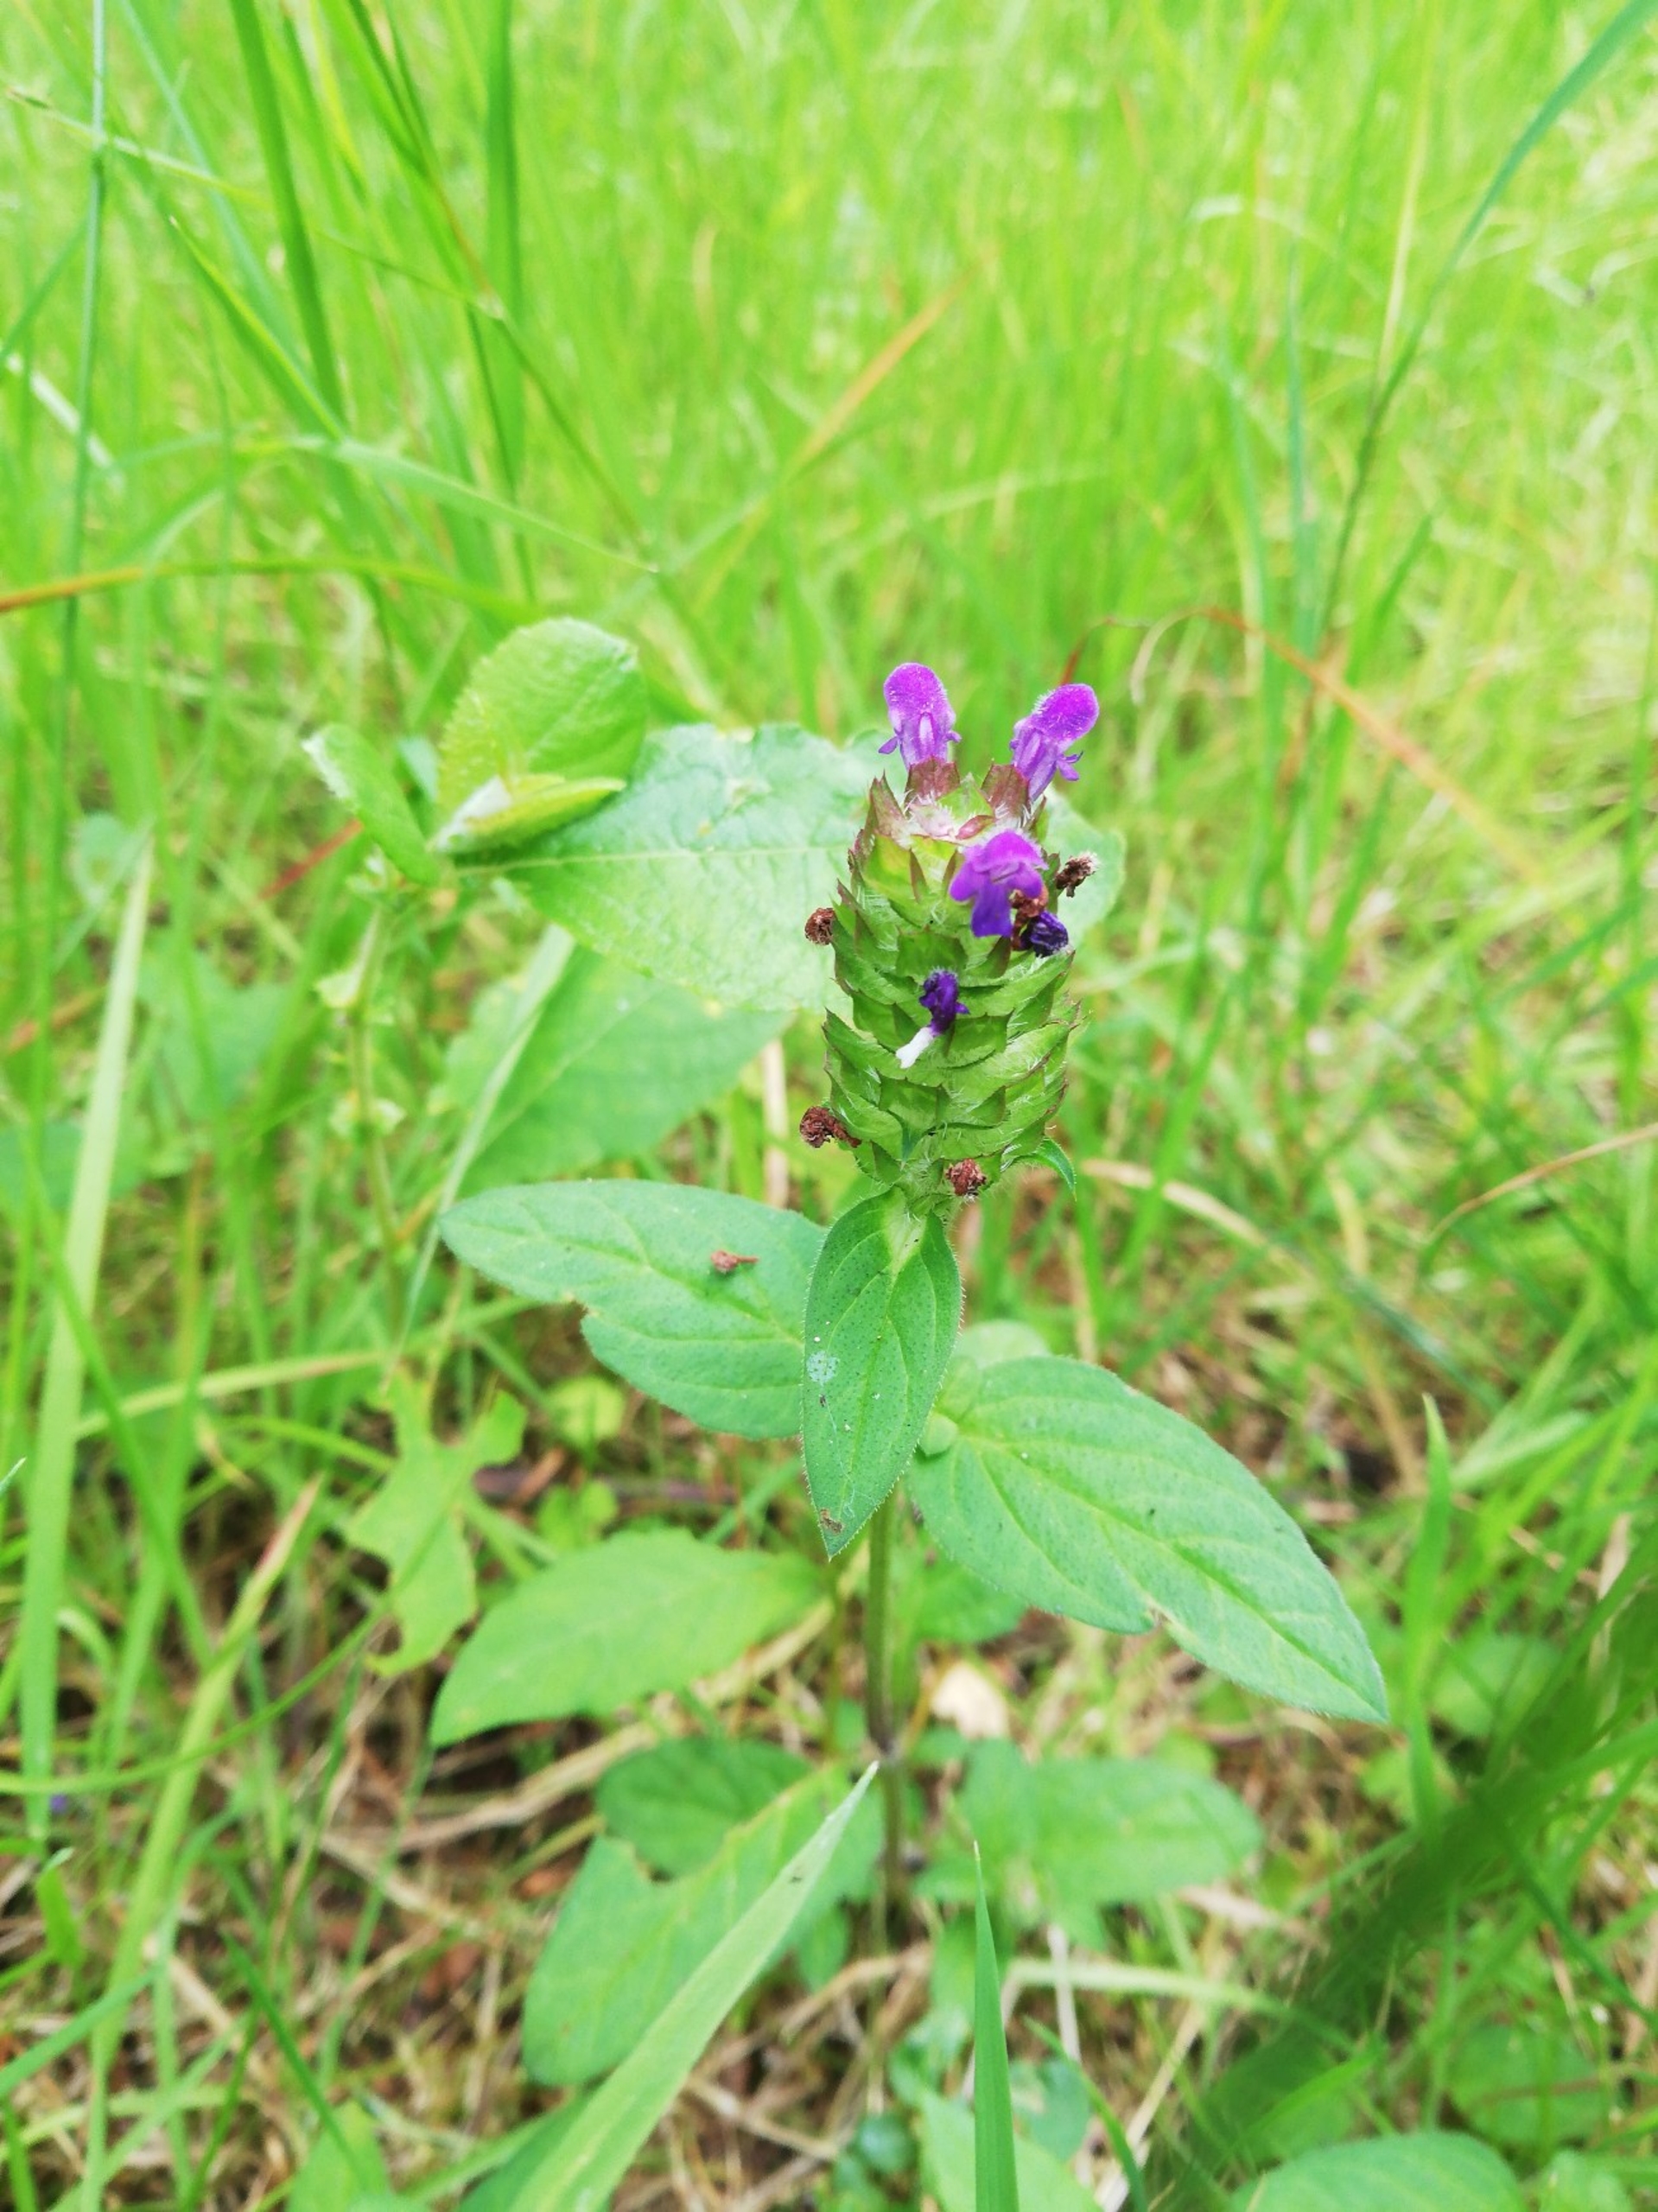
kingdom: Plantae
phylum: Tracheophyta
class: Magnoliopsida
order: Lamiales
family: Lamiaceae
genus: Prunella
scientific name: Prunella vulgaris
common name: Almindelig brunelle
